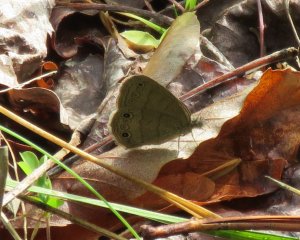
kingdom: Animalia
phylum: Arthropoda
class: Insecta
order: Lepidoptera
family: Nymphalidae
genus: Hermeuptychia
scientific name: Hermeuptychia hermes
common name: Carolina Satyr
